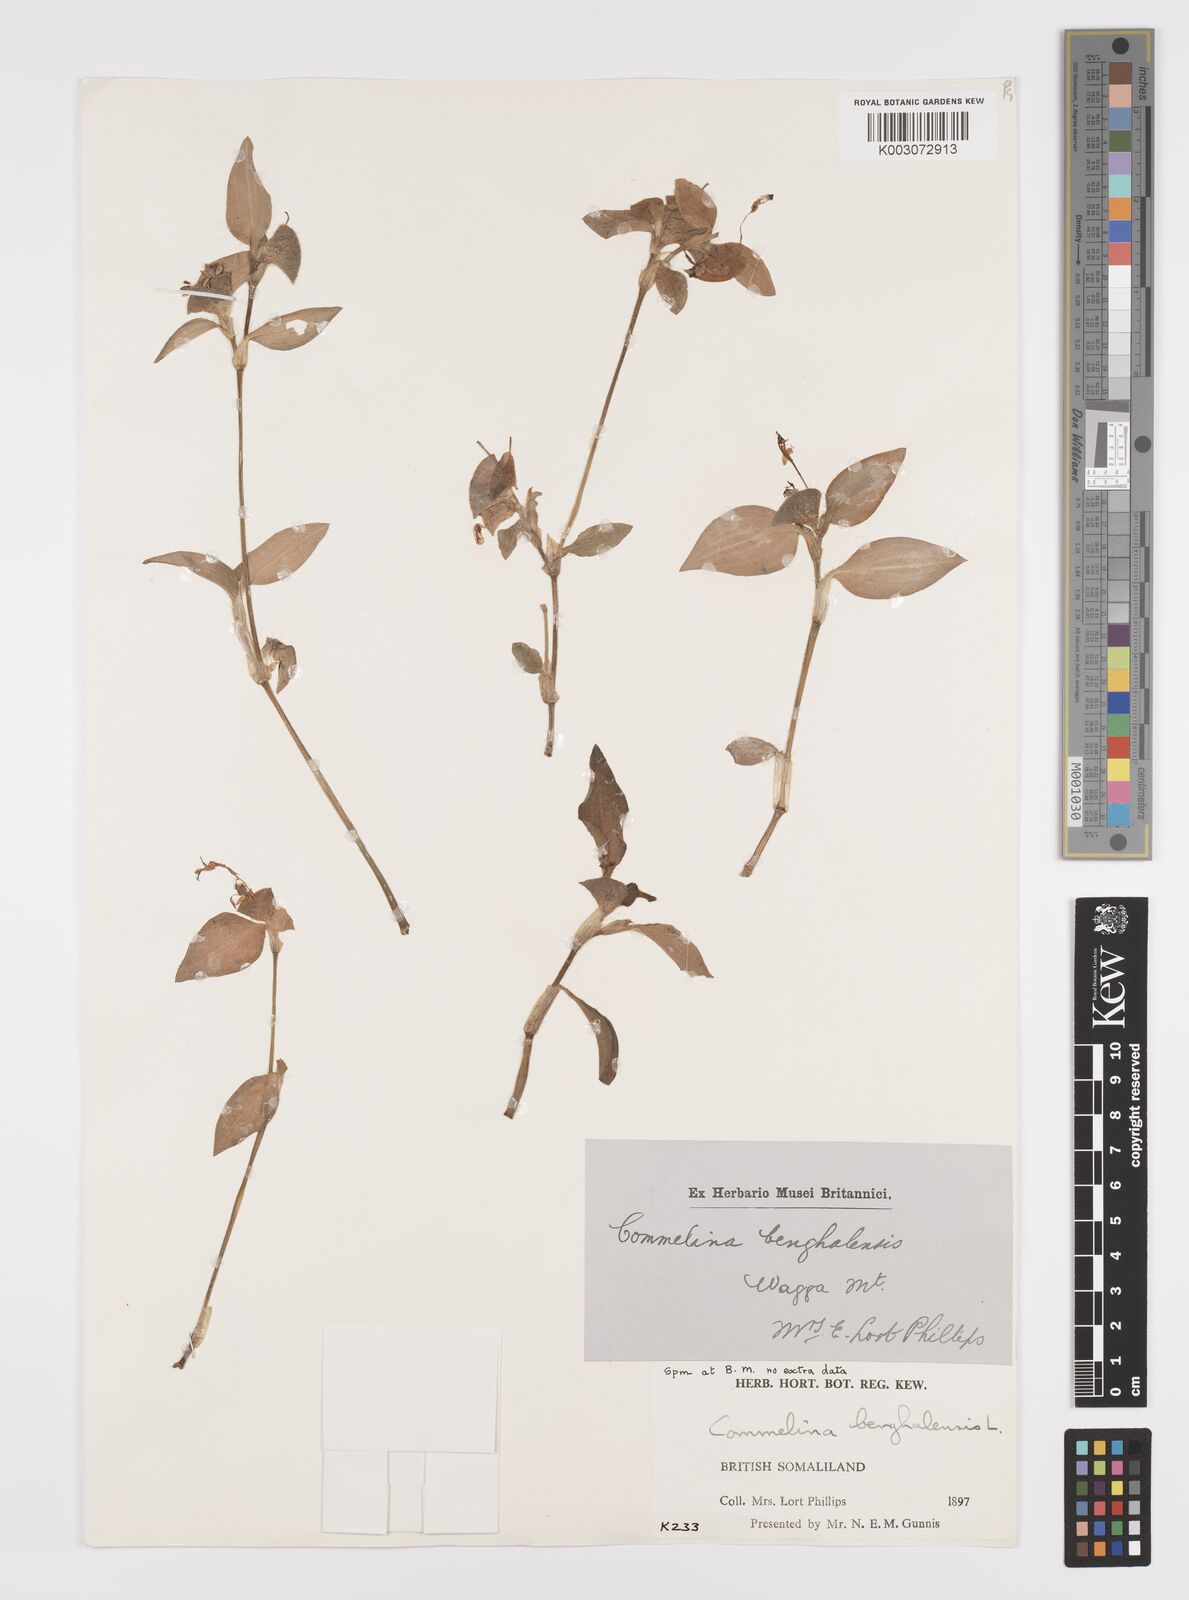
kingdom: Plantae
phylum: Tracheophyta
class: Liliopsida
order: Commelinales
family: Commelinaceae
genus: Commelina
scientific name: Commelina benghalensis
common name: Jio
